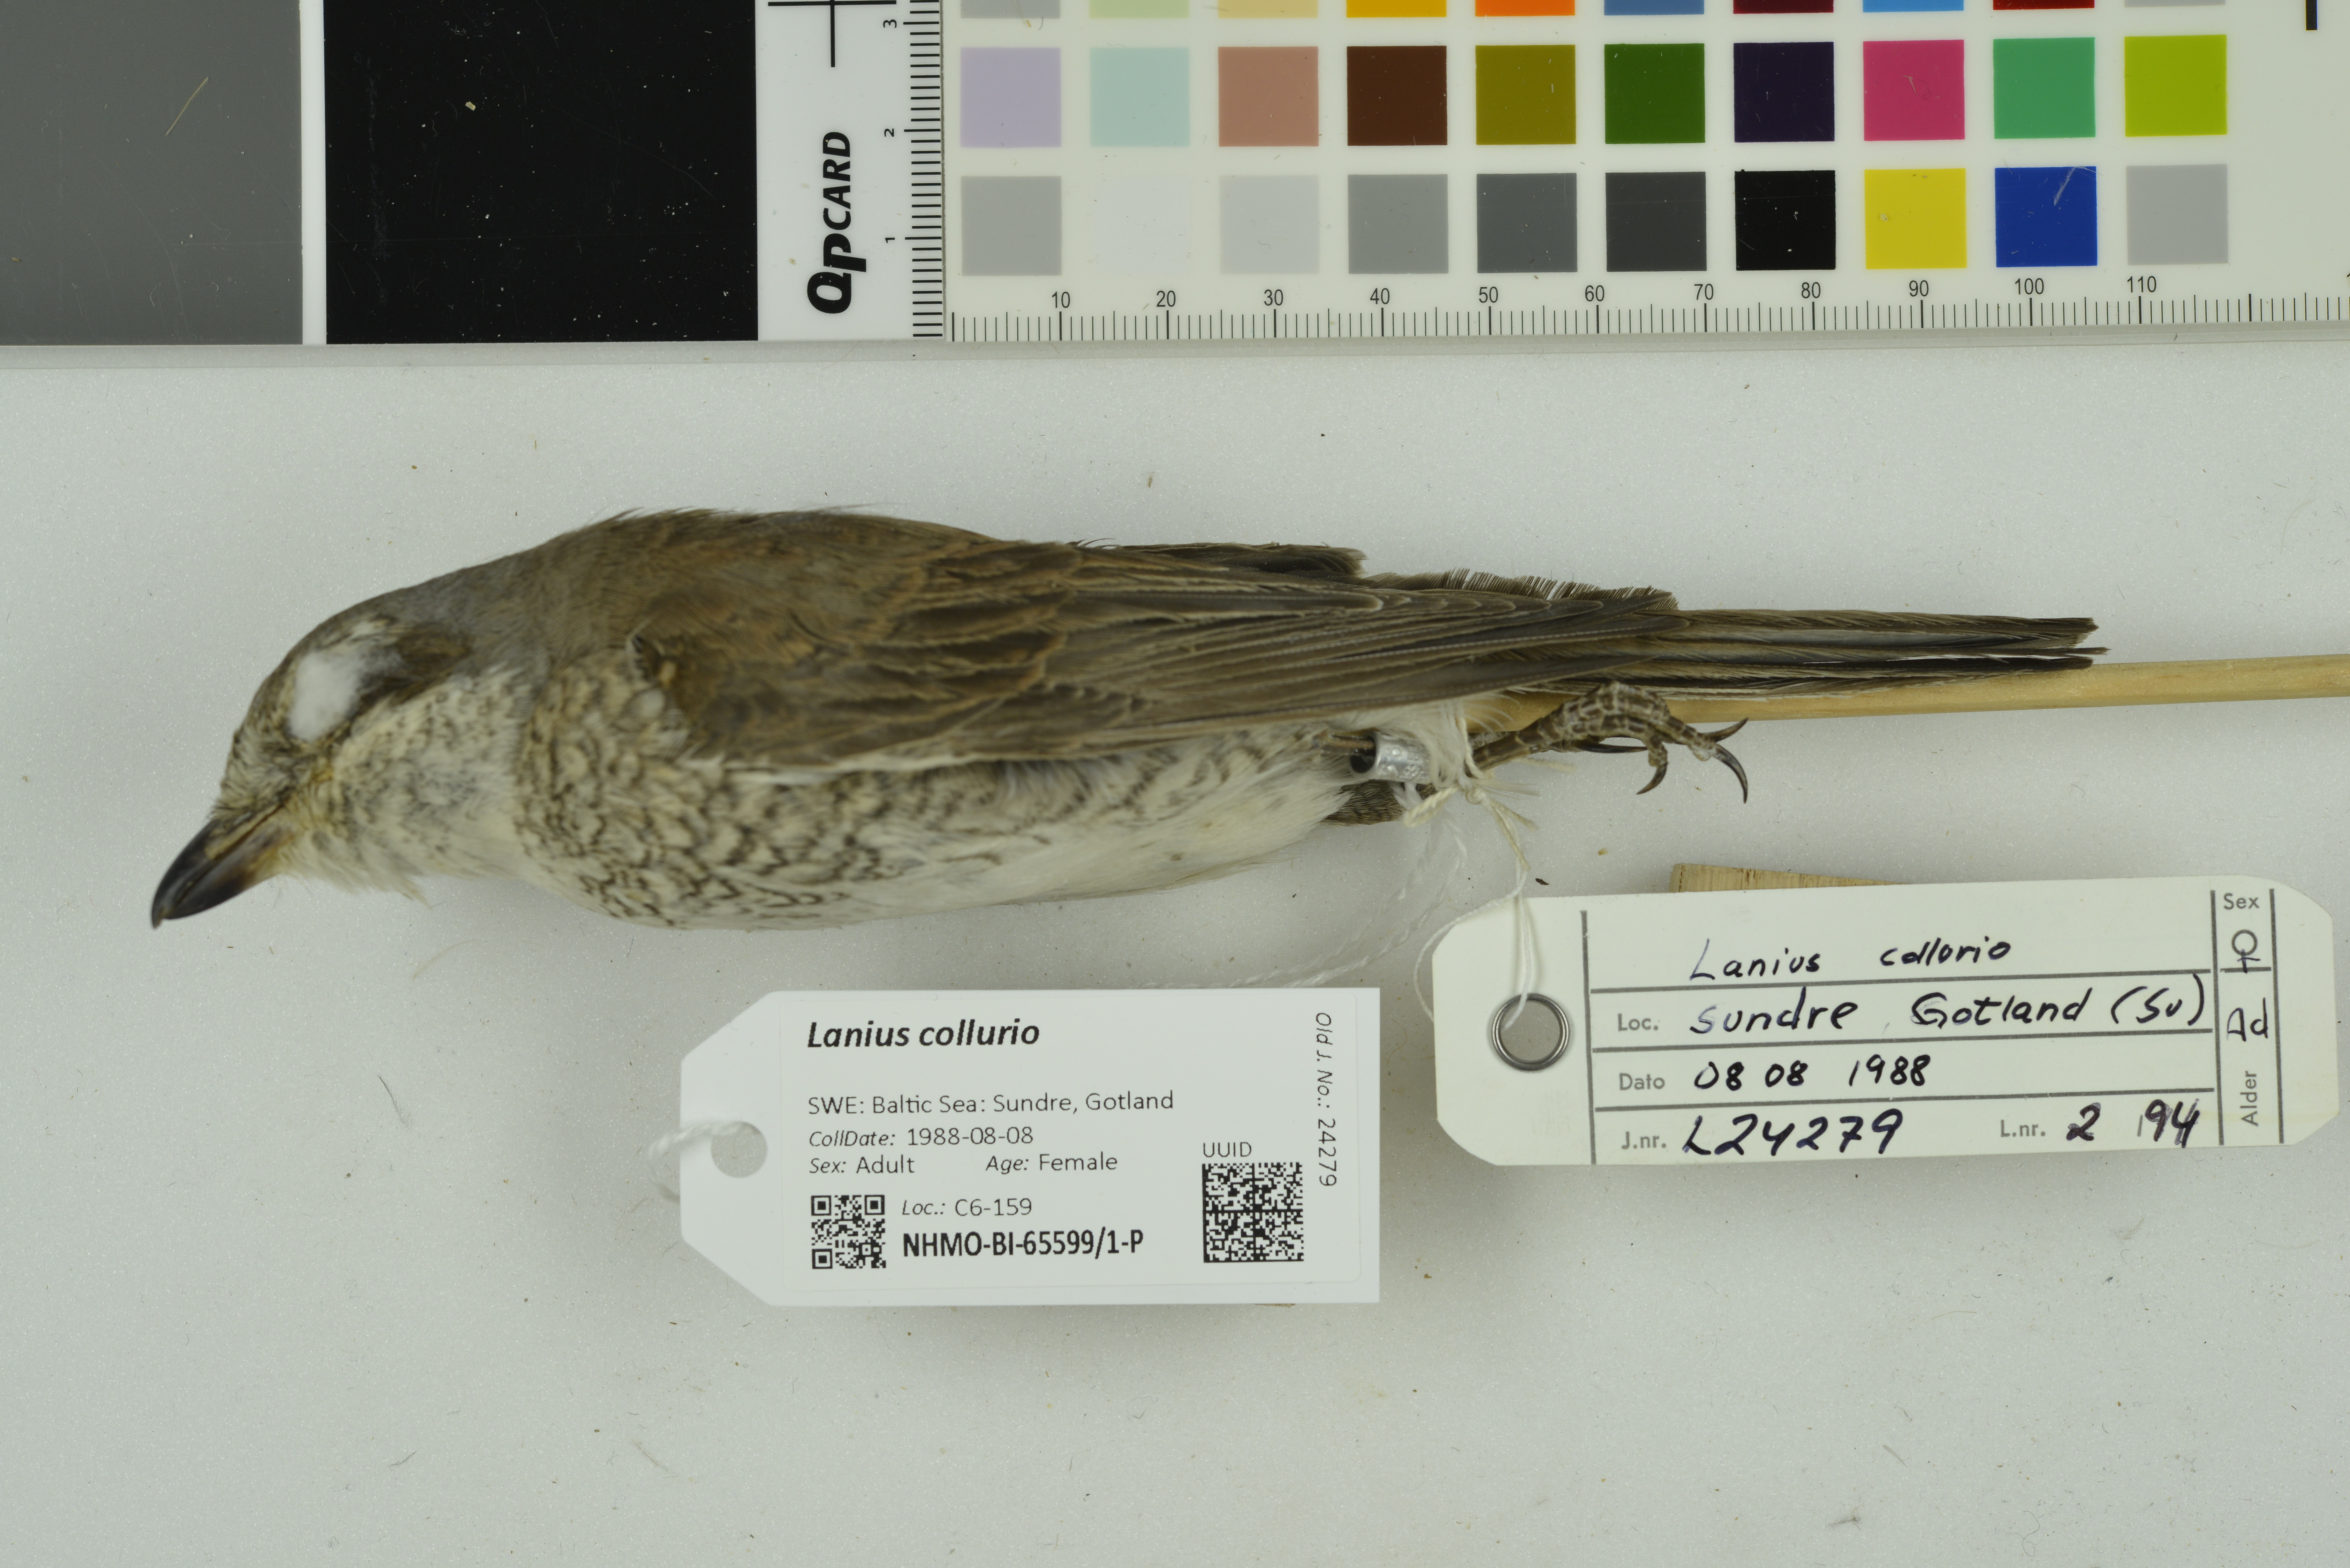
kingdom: Animalia
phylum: Chordata
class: Aves
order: Passeriformes
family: Laniidae
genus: Lanius
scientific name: Lanius collurio
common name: Red-backed shrike
